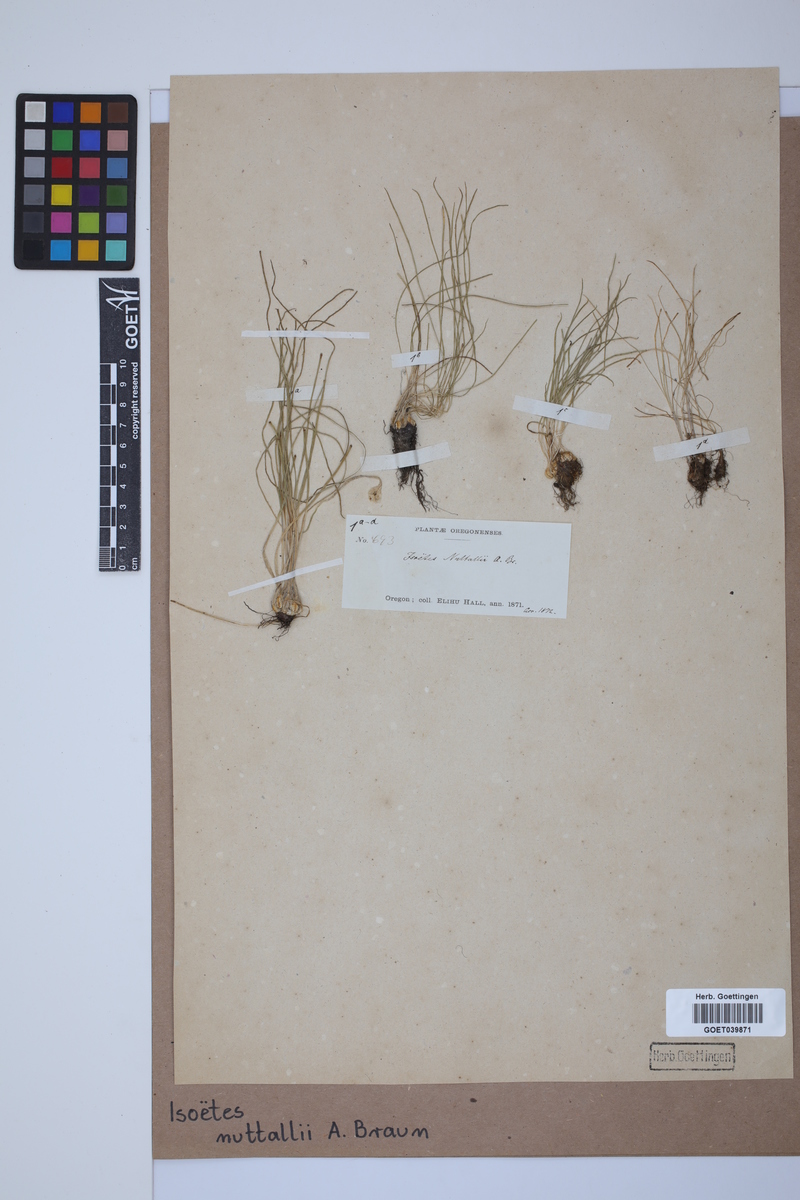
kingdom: Plantae
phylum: Tracheophyta
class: Lycopodiopsida
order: Isoetales
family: Isoetaceae
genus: Isoetes
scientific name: Isoetes nuttallii
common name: Nuttall's quillwort
